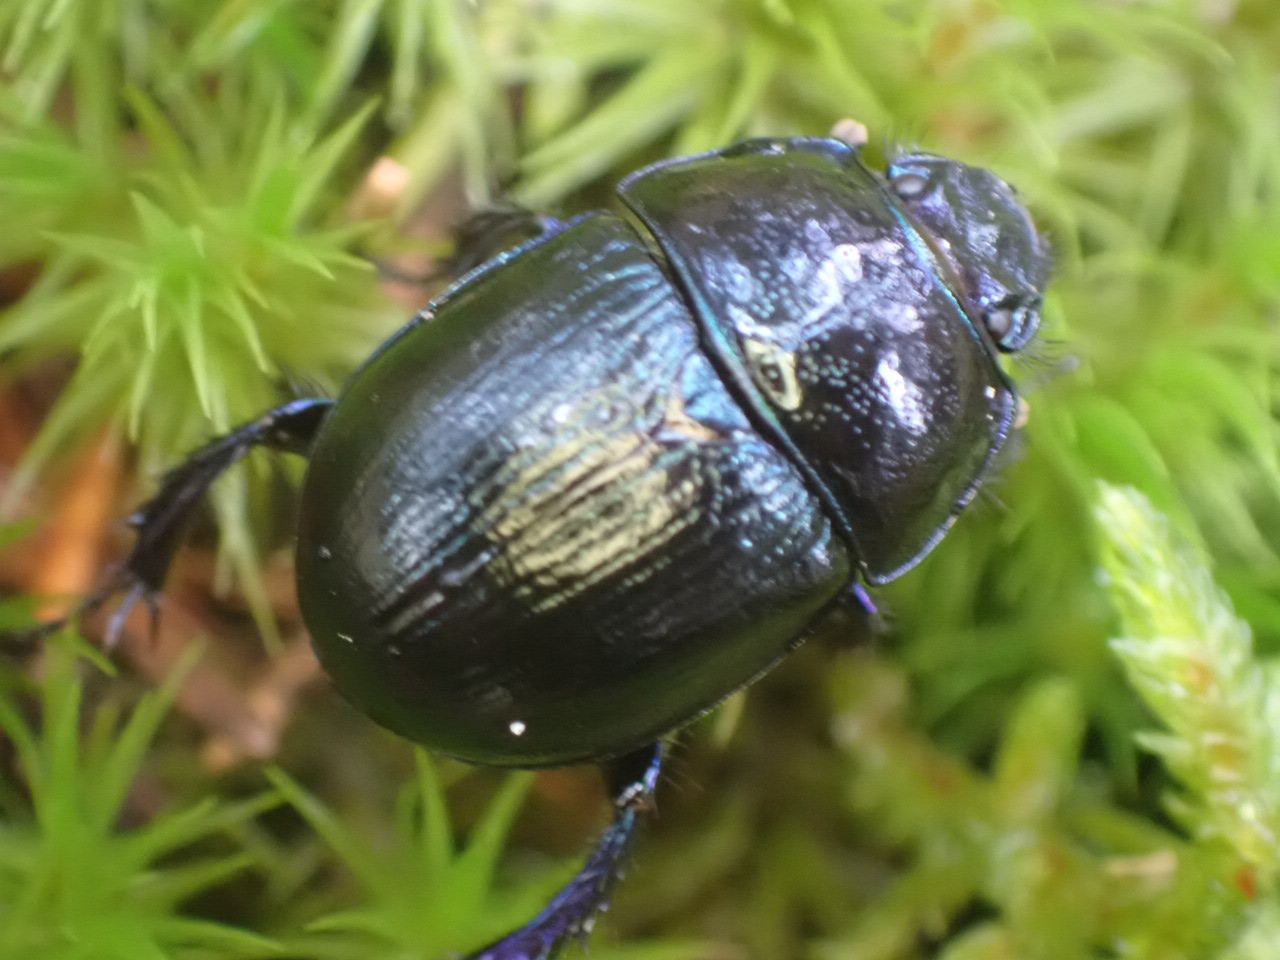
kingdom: Animalia
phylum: Arthropoda
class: Insecta
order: Coleoptera
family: Geotrupidae
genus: Anoplotrupes
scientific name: Anoplotrupes stercorosus
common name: Skovskarnbasse
